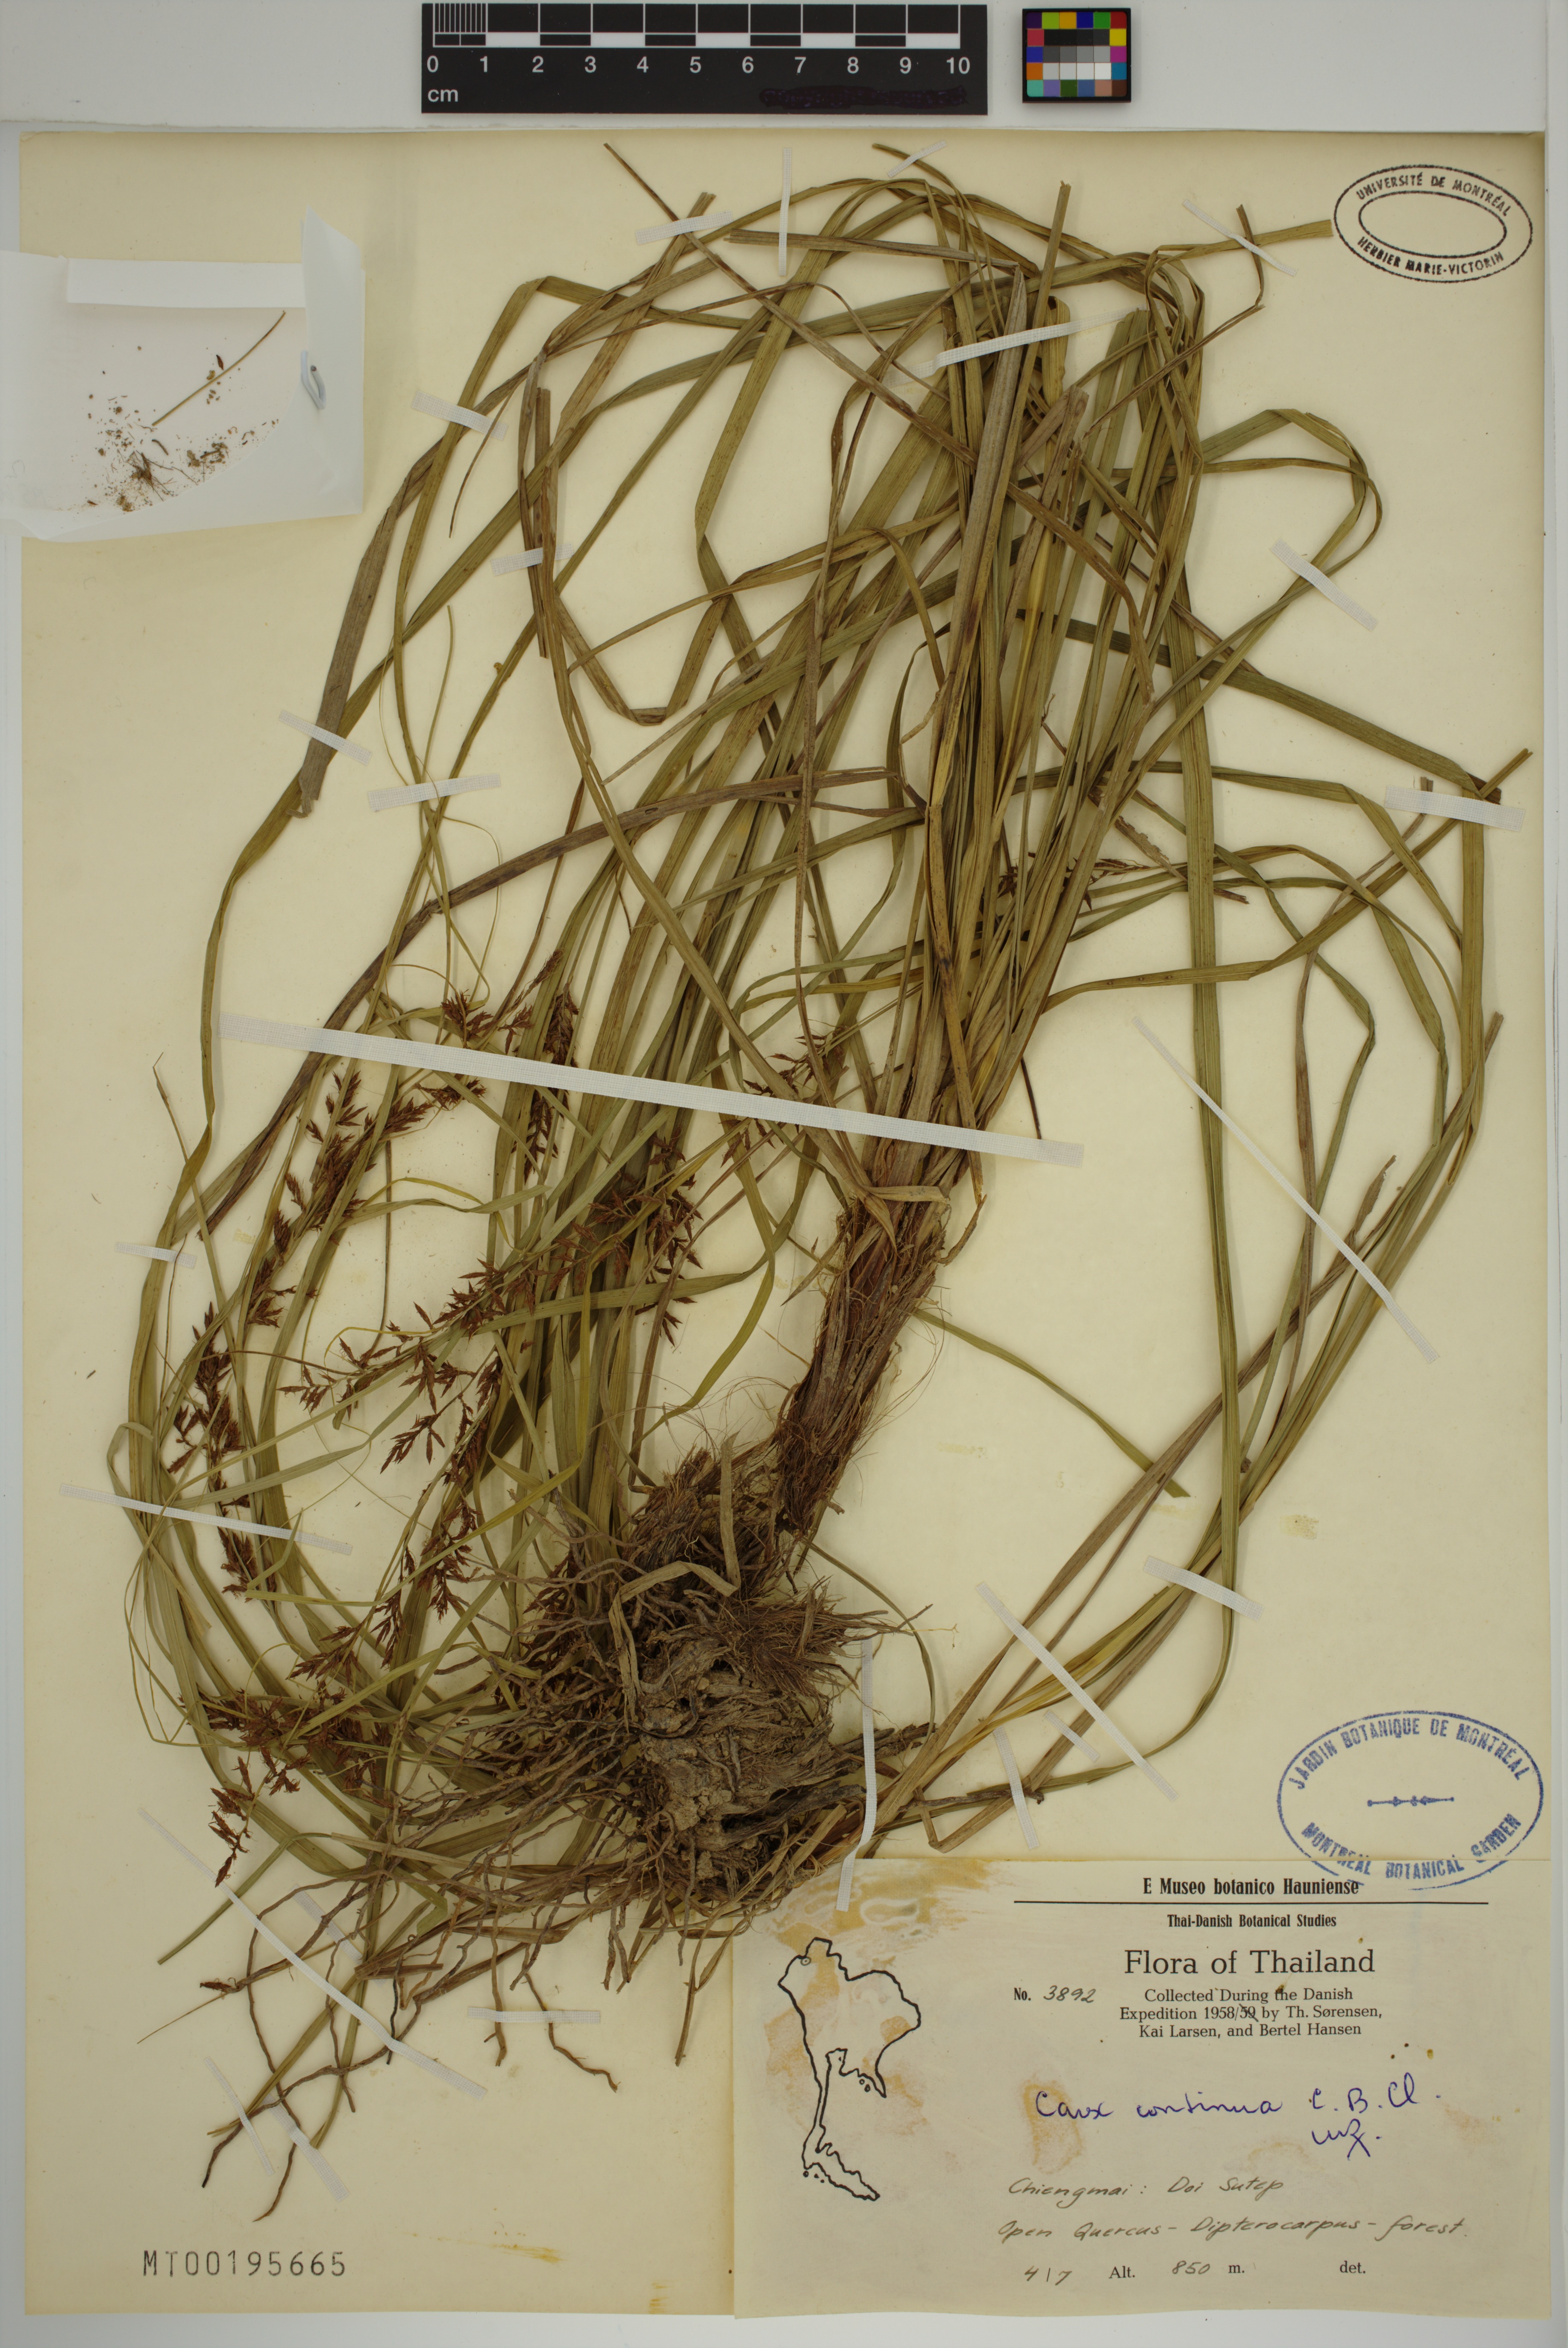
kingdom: Plantae
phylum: Tracheophyta
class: Liliopsida
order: Poales
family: Cyperaceae
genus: Carex
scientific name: Carex continua
